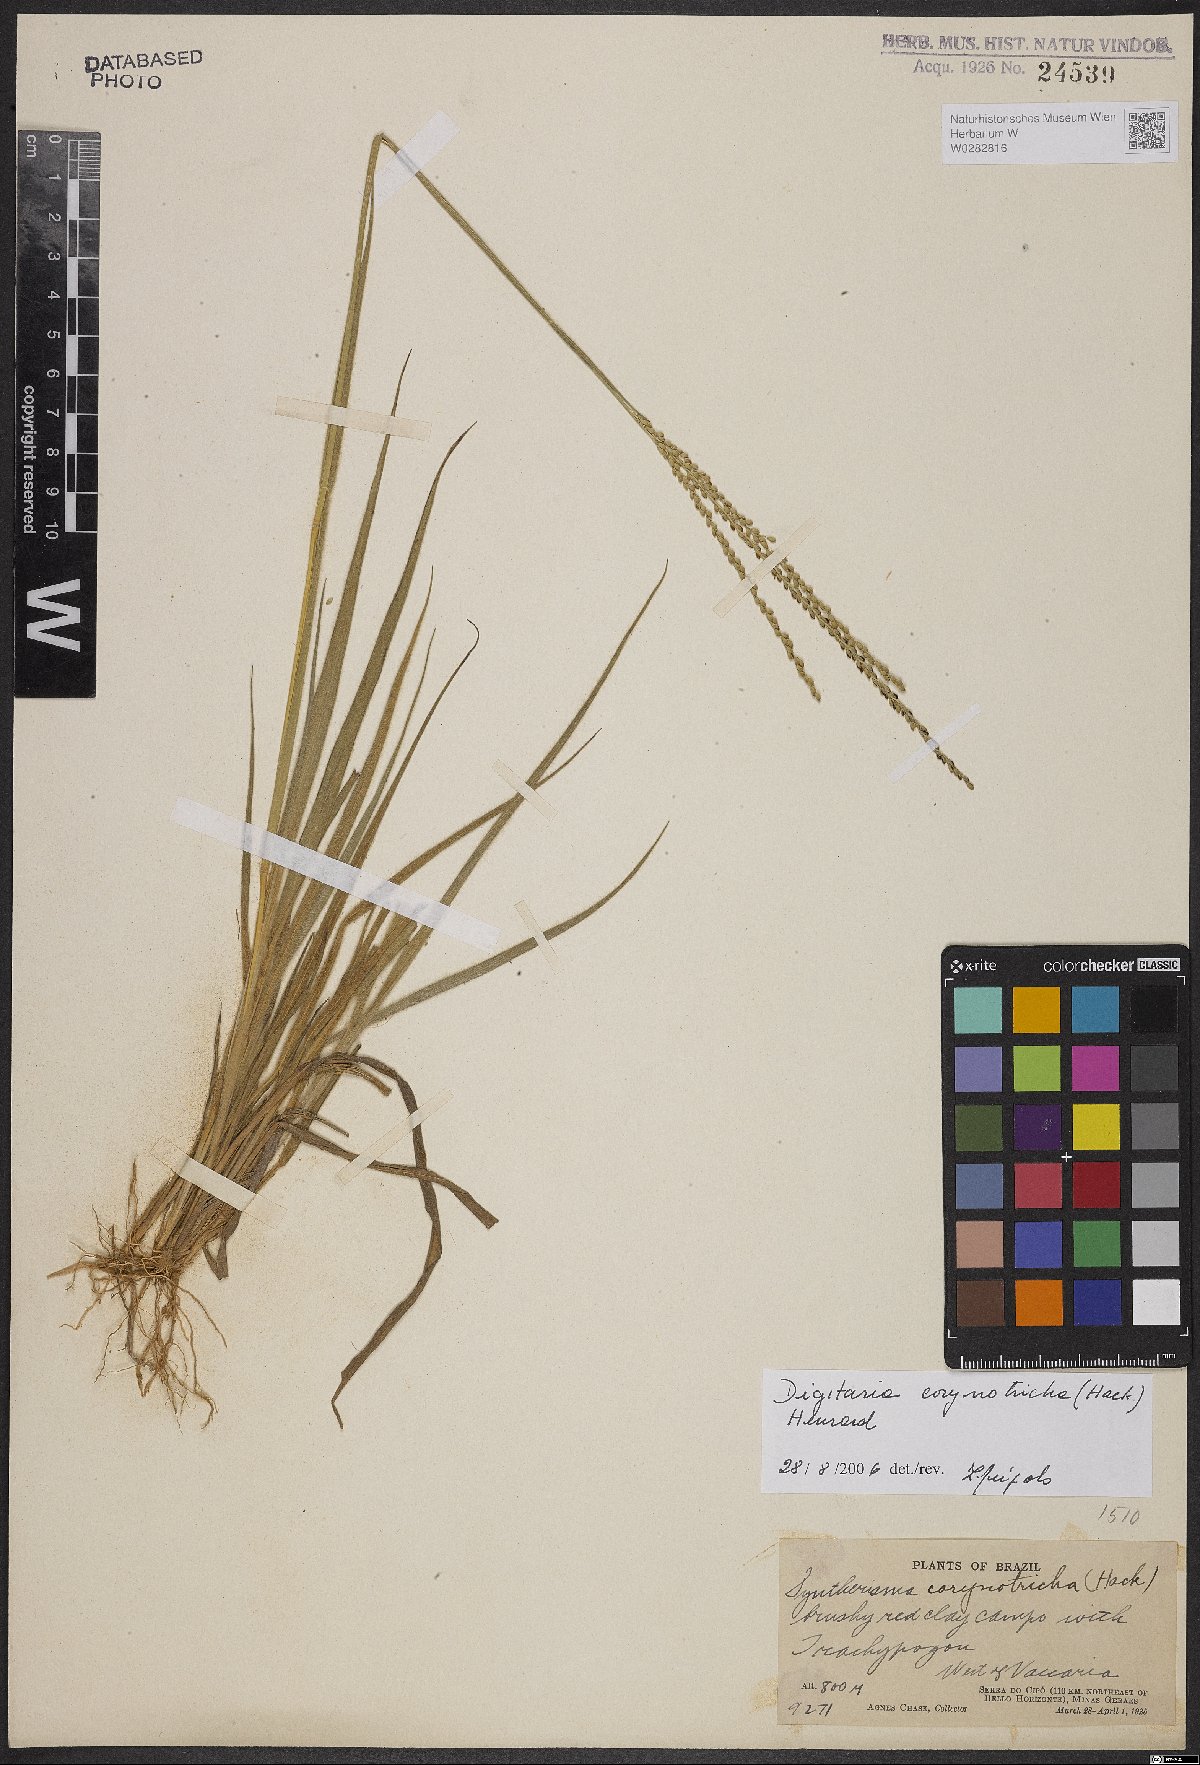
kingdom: Plantae
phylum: Tracheophyta
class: Liliopsida
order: Poales
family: Poaceae
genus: Digitaria
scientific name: Digitaria corynotricha
